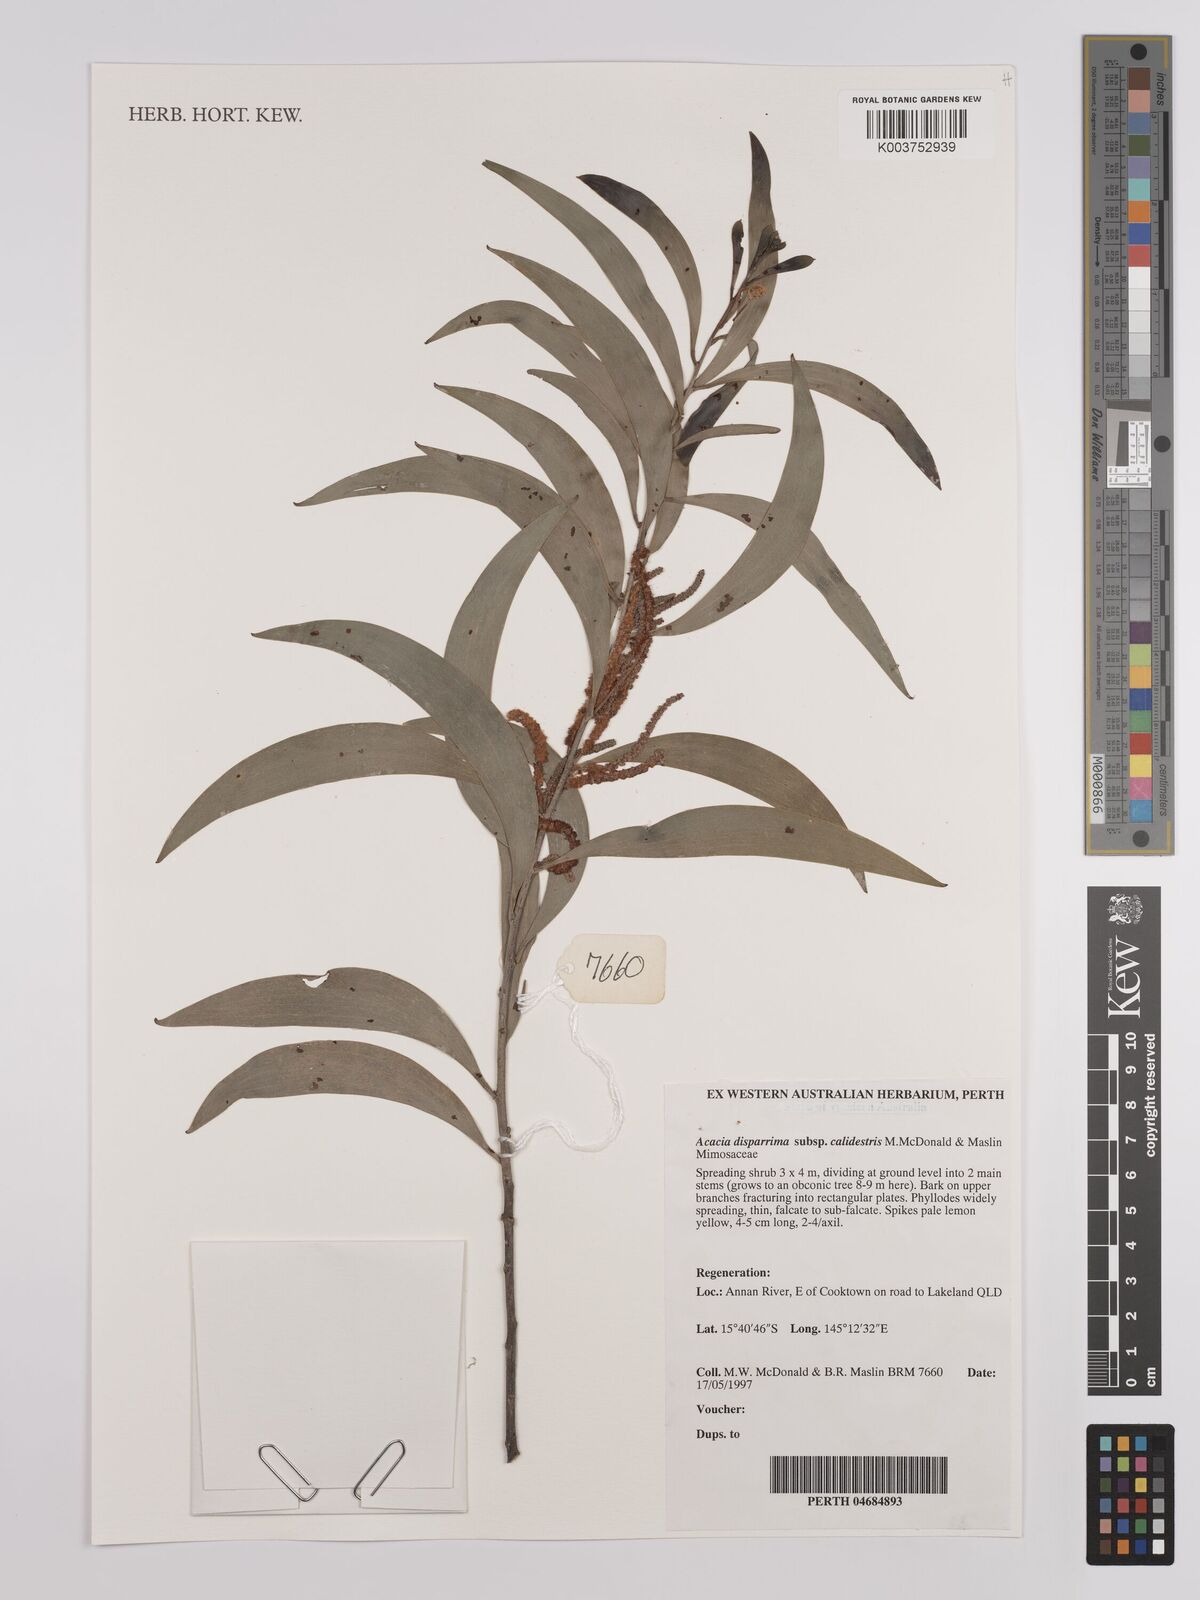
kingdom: Plantae
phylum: Tracheophyta
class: Magnoliopsida
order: Fabales
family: Fabaceae
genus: Acacia
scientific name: Acacia disparrima
